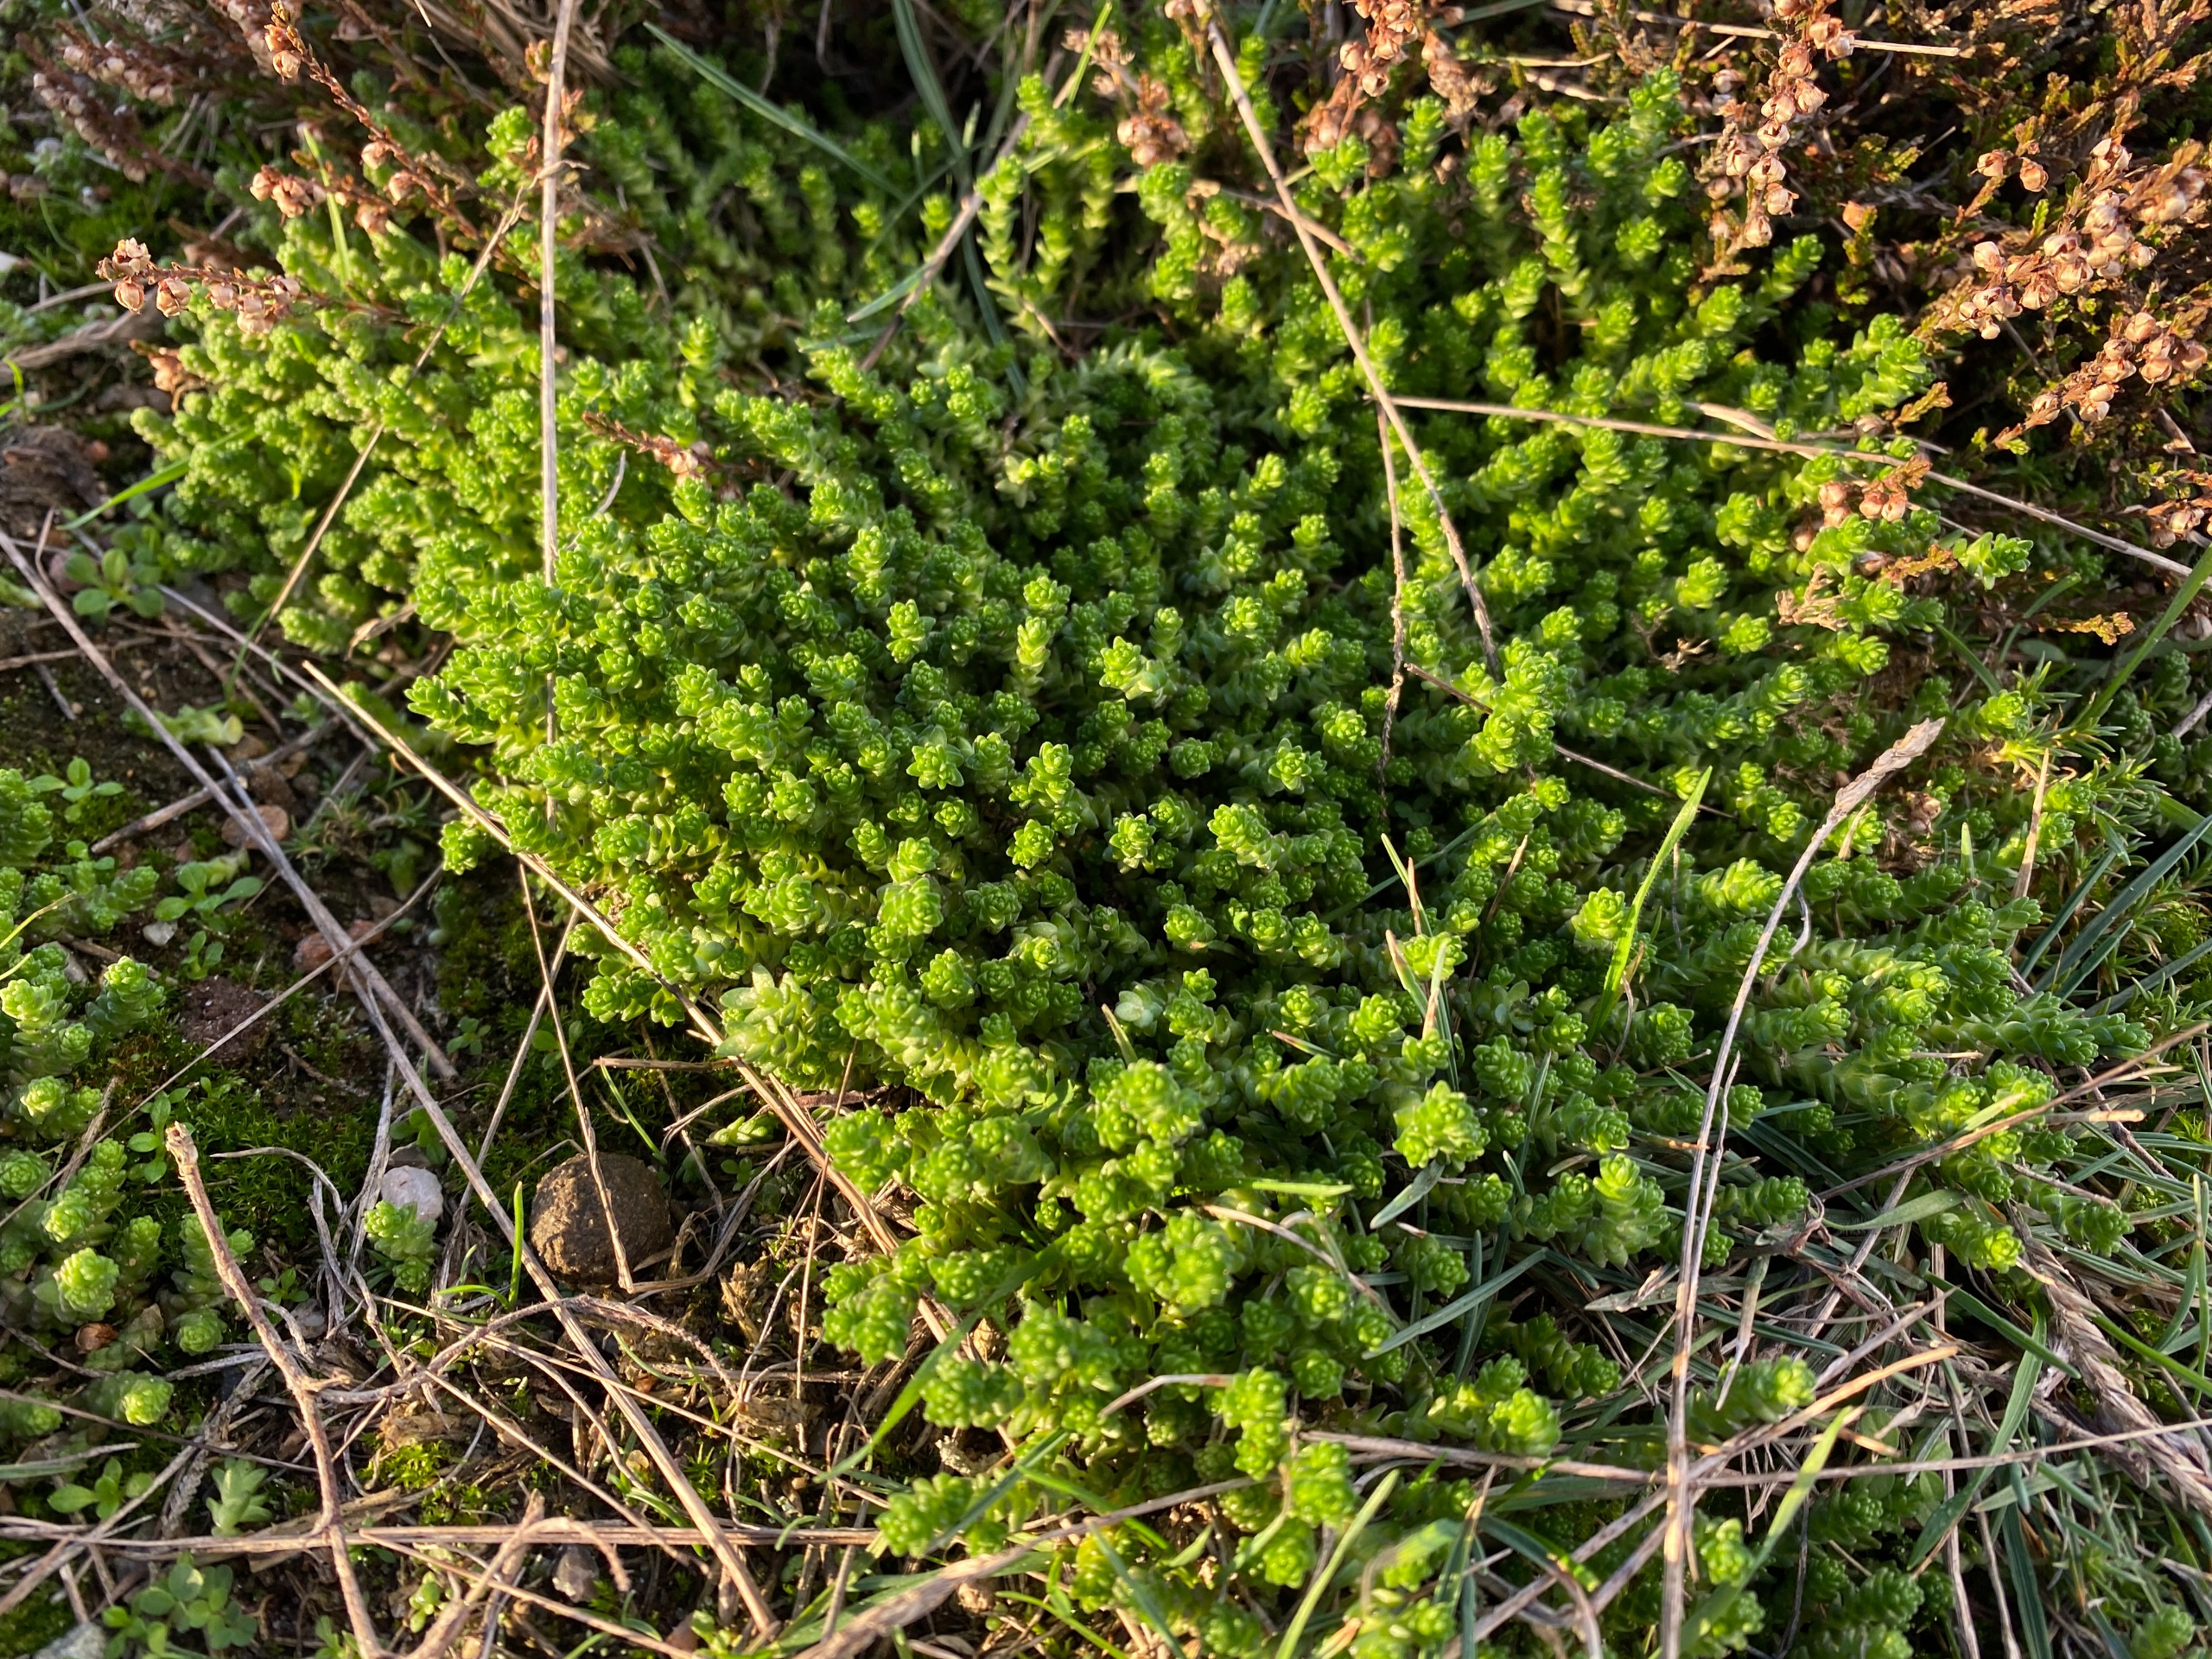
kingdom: Plantae
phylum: Tracheophyta
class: Magnoliopsida
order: Saxifragales
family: Crassulaceae
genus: Sedum
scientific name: Sedum acre
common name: Bidende stenurt
